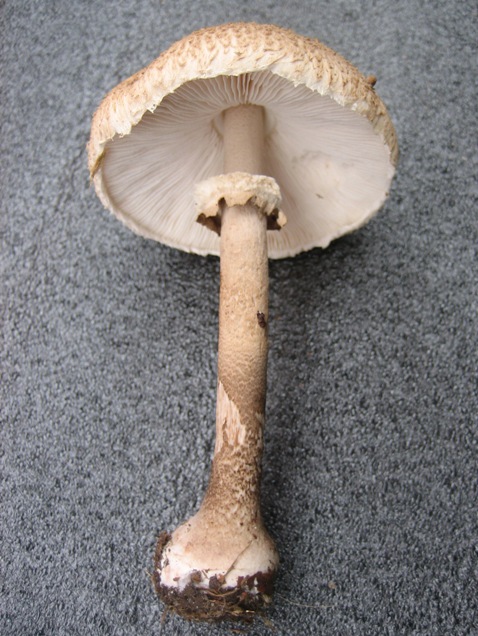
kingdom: Fungi
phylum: Basidiomycota
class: Agaricomycetes
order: Agaricales
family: Agaricaceae
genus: Macrolepiota
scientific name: Macrolepiota procera
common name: stor kæmpeparasolhat
